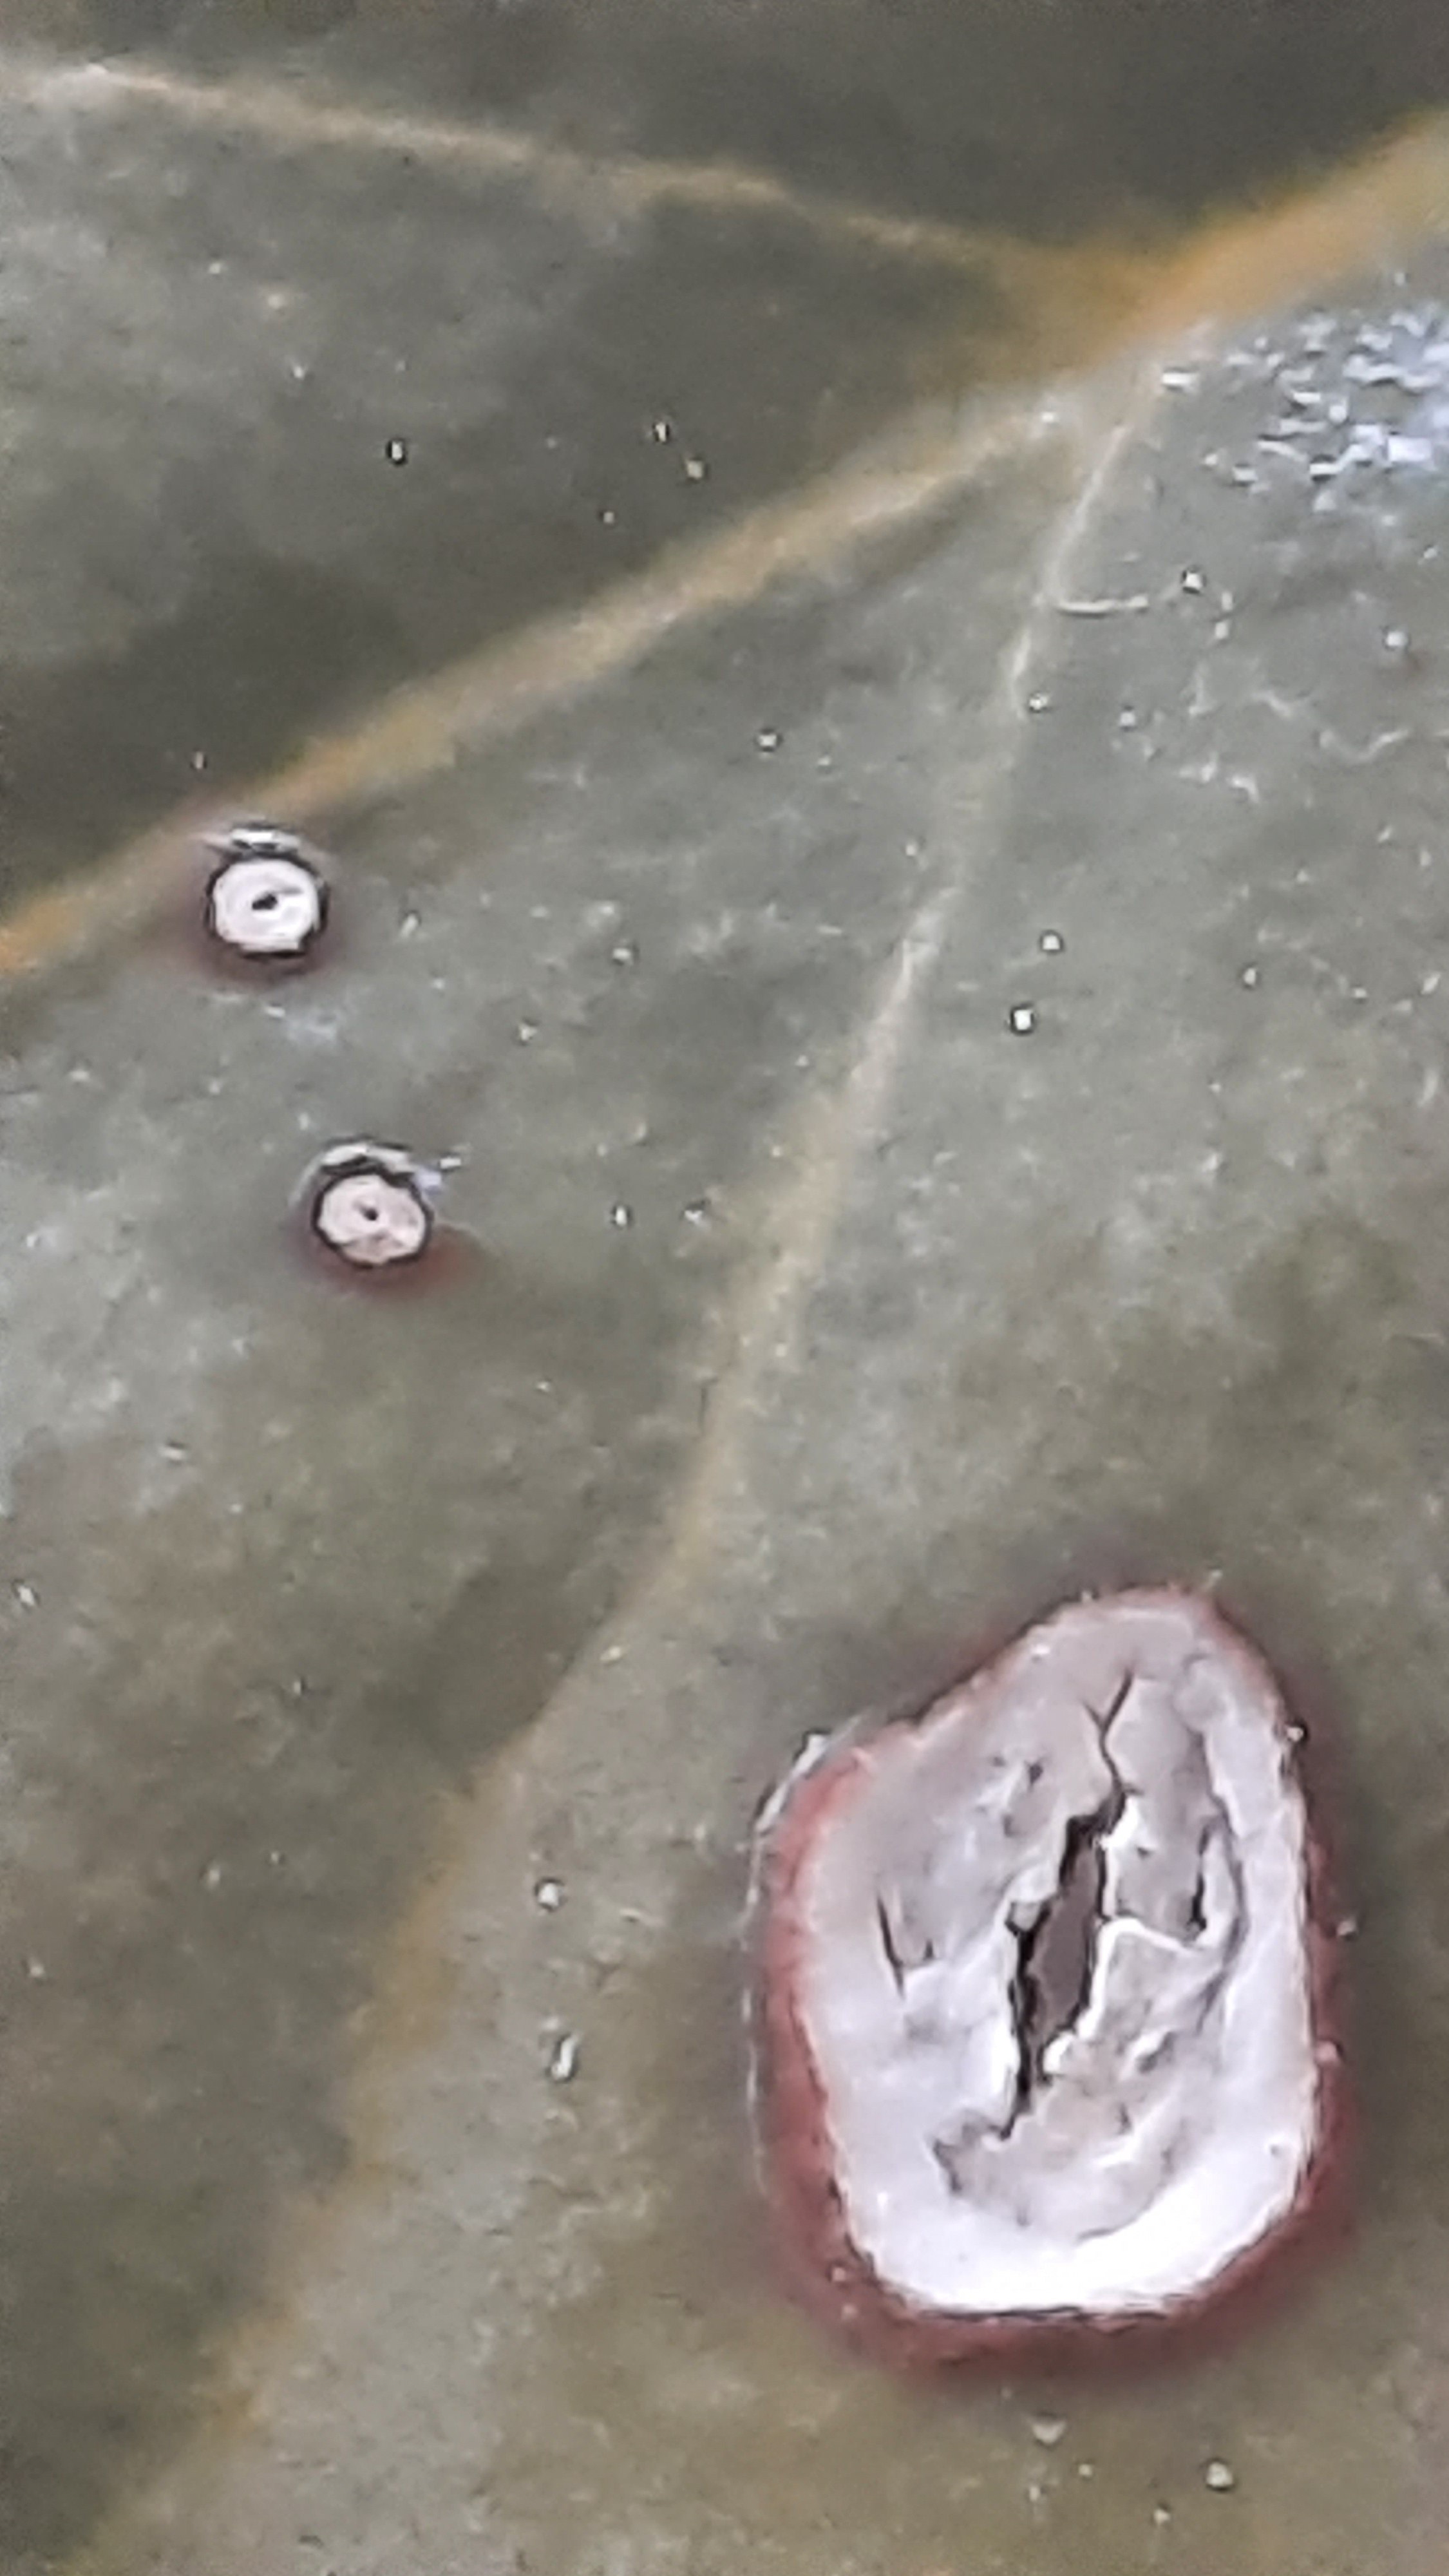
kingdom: Fungi
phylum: Ascomycota
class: Leotiomycetes
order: Phacidiales
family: Phacidiaceae
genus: Phacidium
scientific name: Phacidium lauri
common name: kristtorn-tandskive
